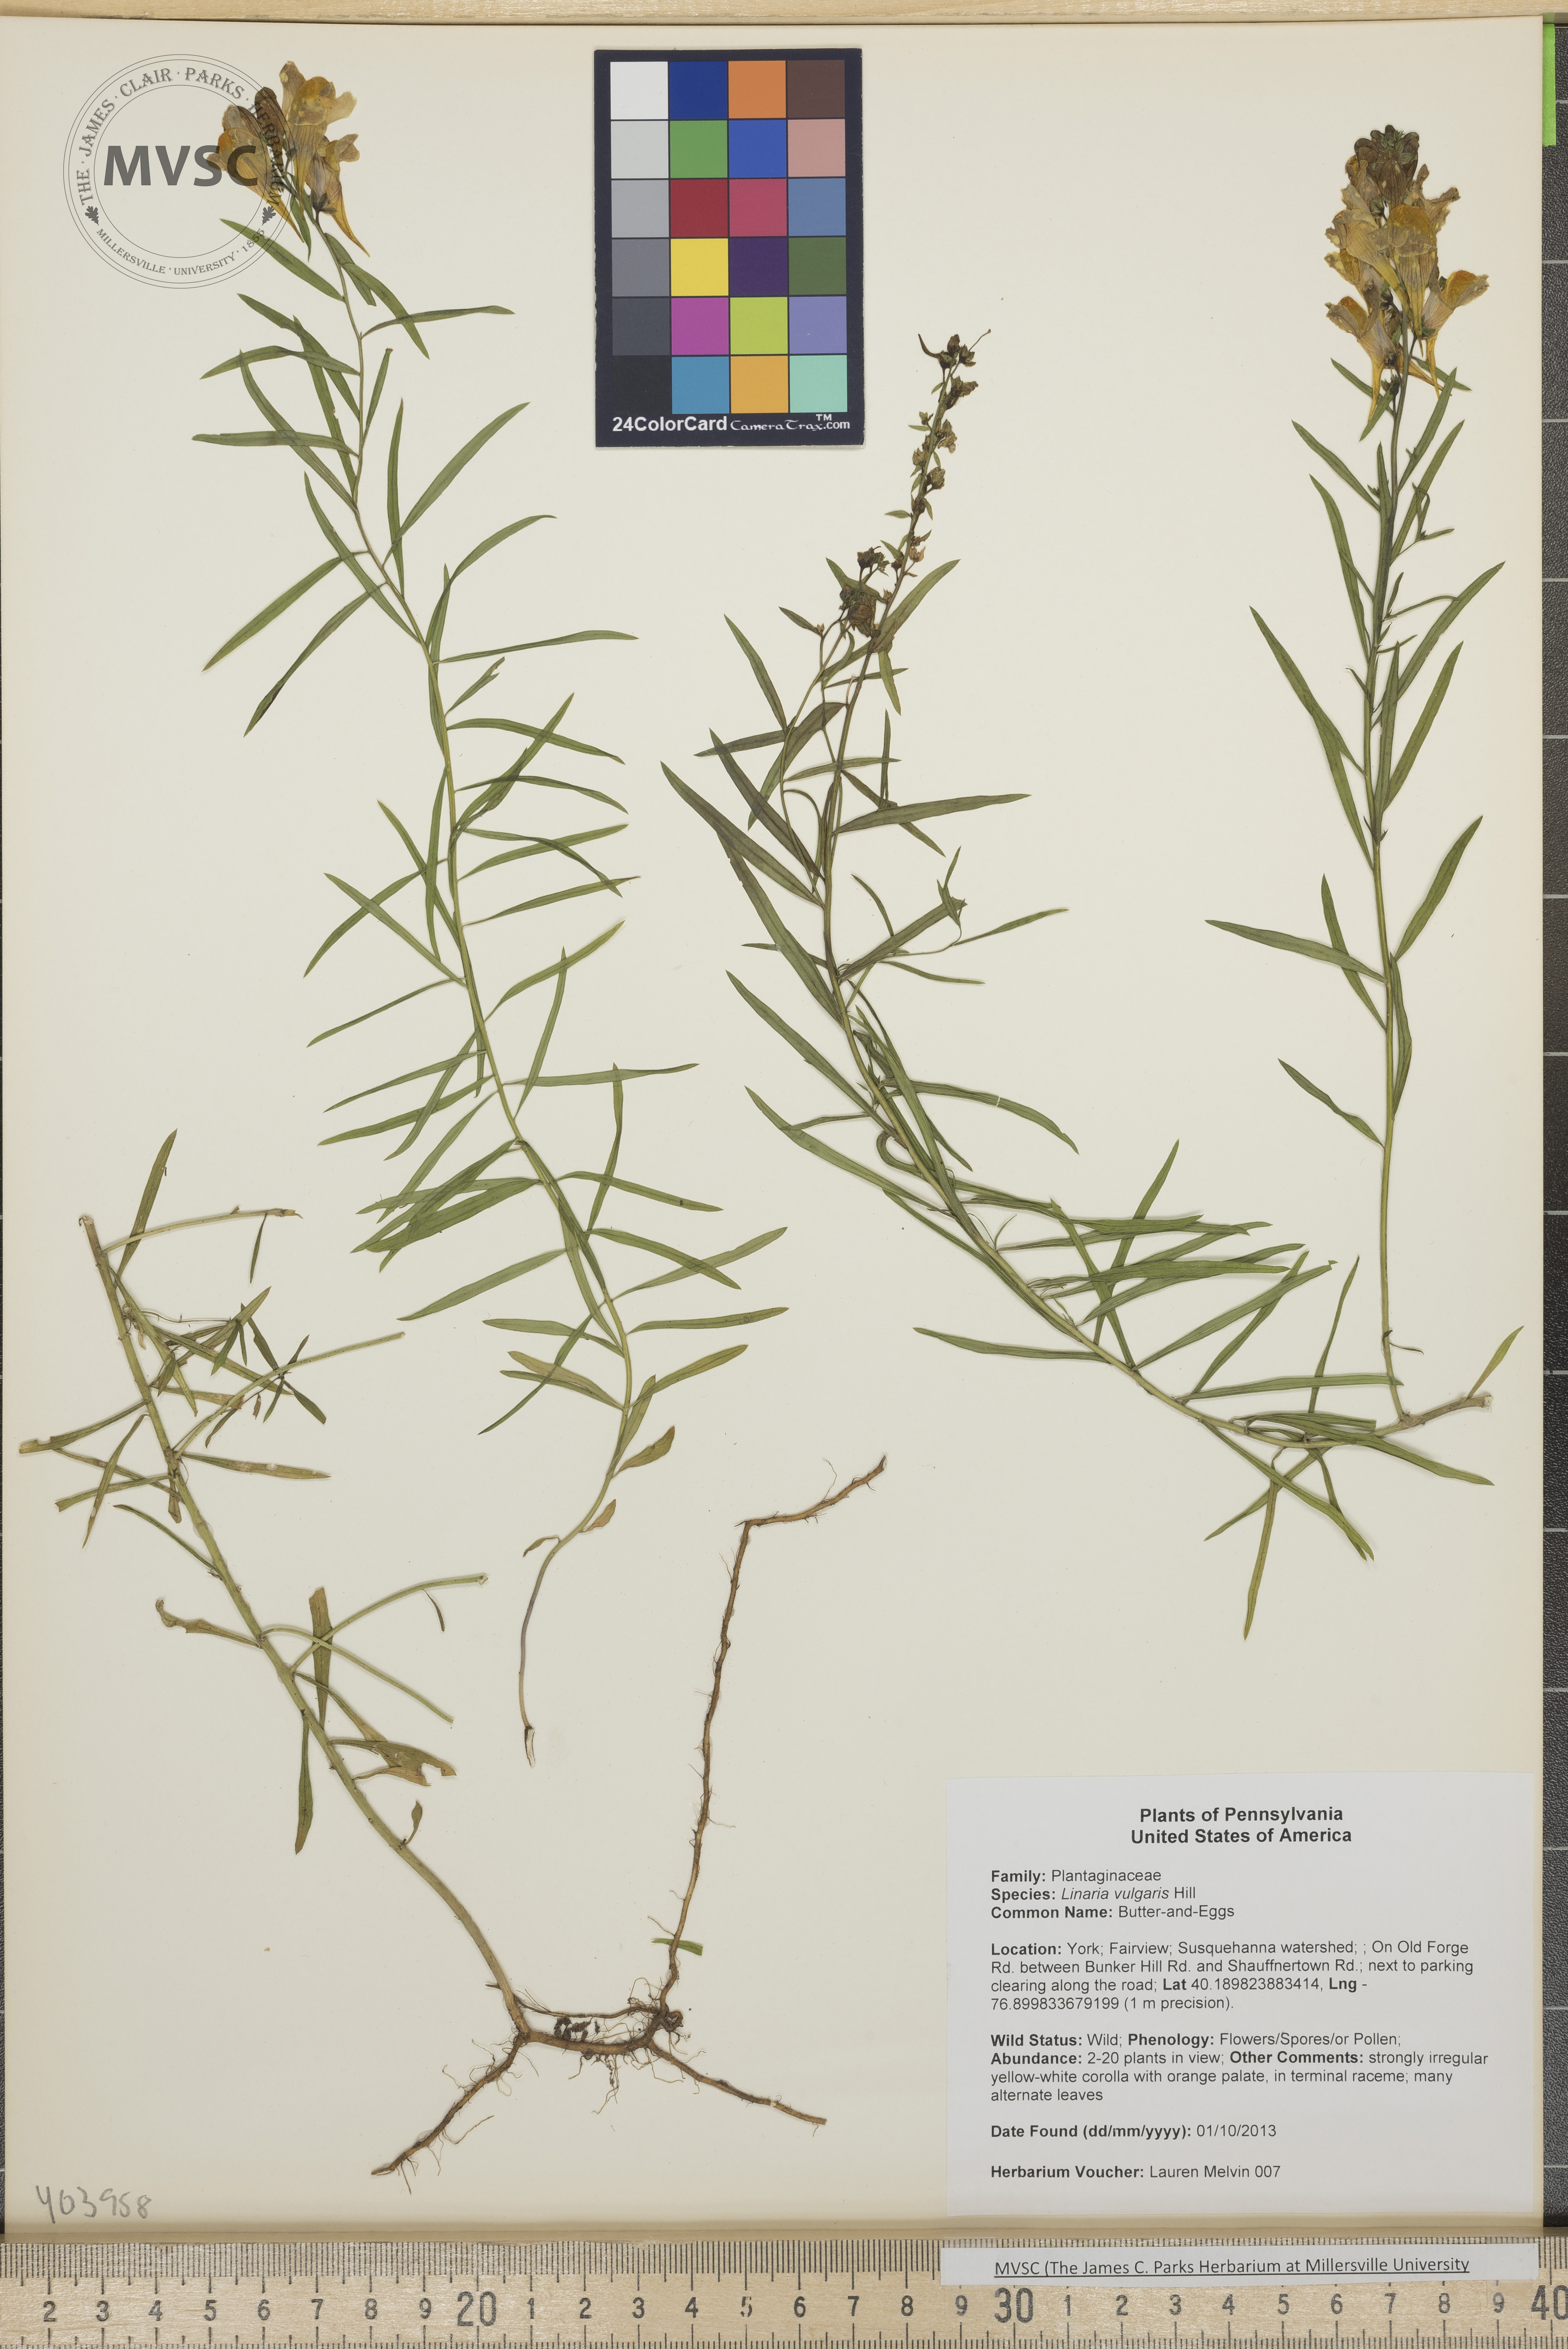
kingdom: Plantae
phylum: Tracheophyta
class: Magnoliopsida
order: Lamiales
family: Plantaginaceae
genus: Linaria
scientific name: Linaria vulgaris
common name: Butter-and-Eggs
